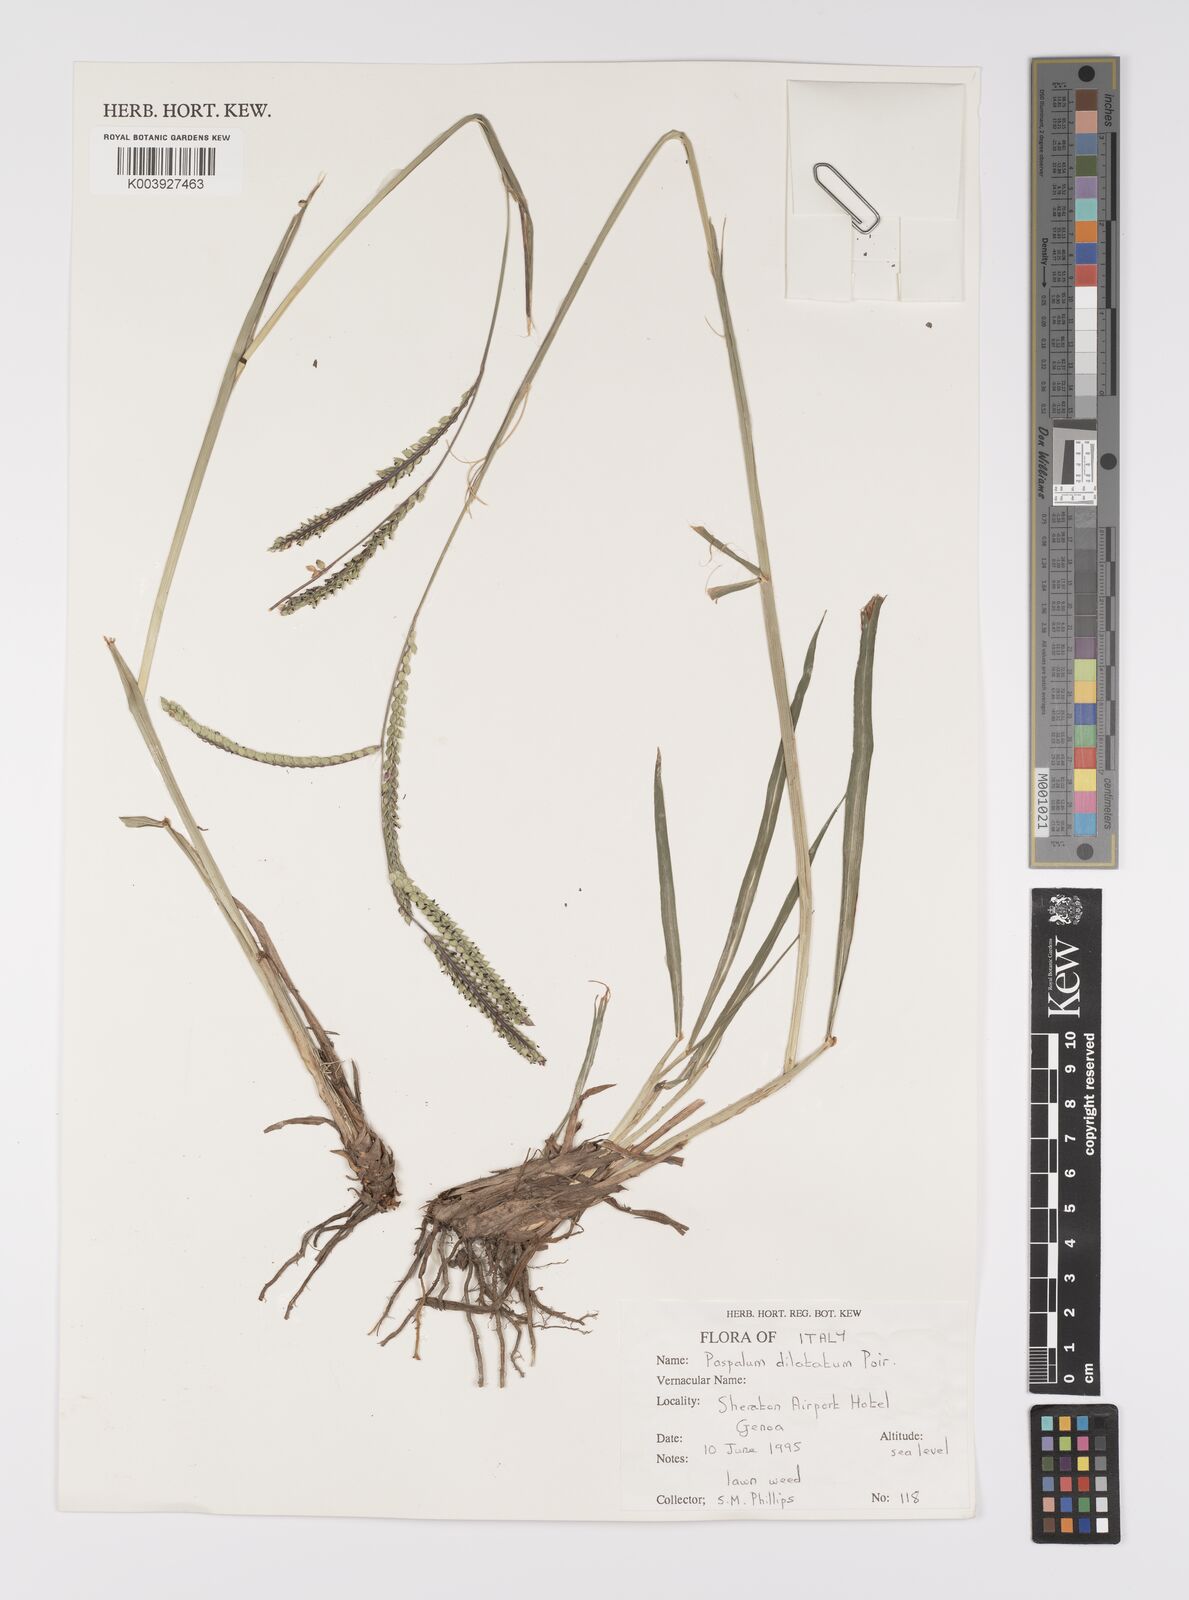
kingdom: Plantae
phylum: Tracheophyta
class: Liliopsida
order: Poales
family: Poaceae
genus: Paspalum
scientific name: Paspalum dilatatum
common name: Dallisgrass
